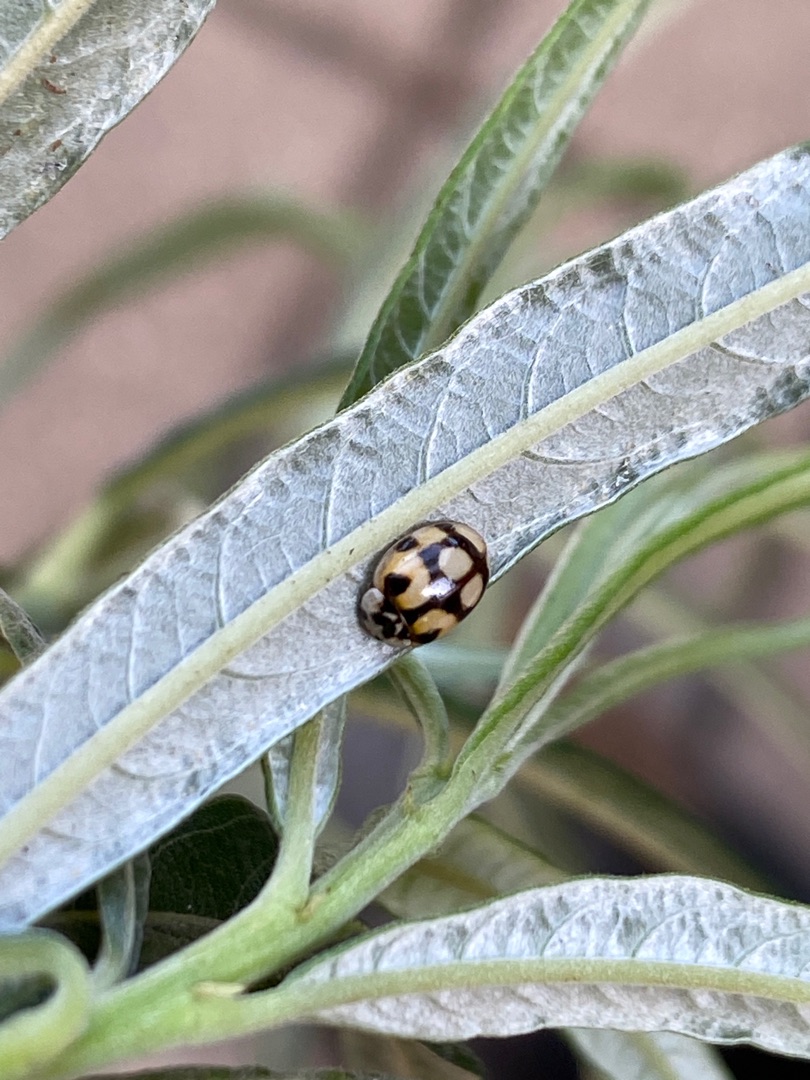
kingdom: Animalia
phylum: Arthropoda
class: Insecta
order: Coleoptera
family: Coccinellidae
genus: Adalia
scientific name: Adalia decempunctata
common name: Tiplettet mariehøne
